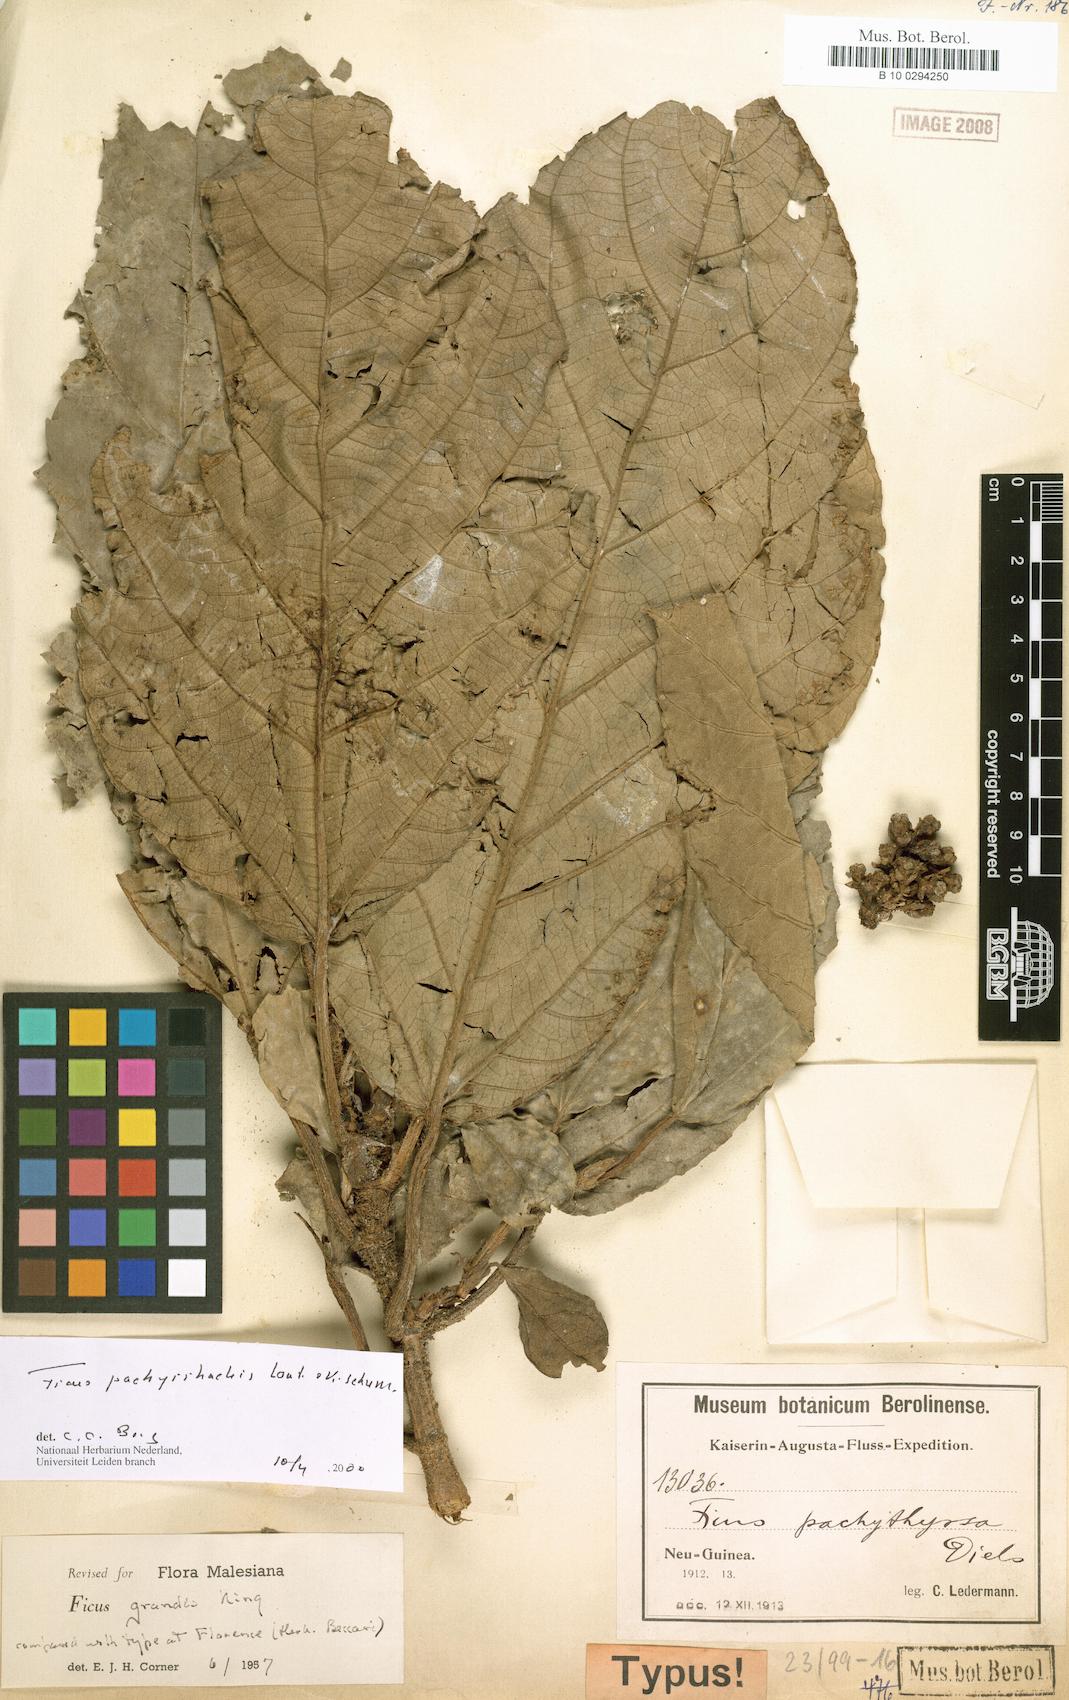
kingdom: Plantae
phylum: Tracheophyta
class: Magnoliopsida
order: Rosales
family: Moraceae
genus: Ficus
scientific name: Ficus pachyrrhachis
